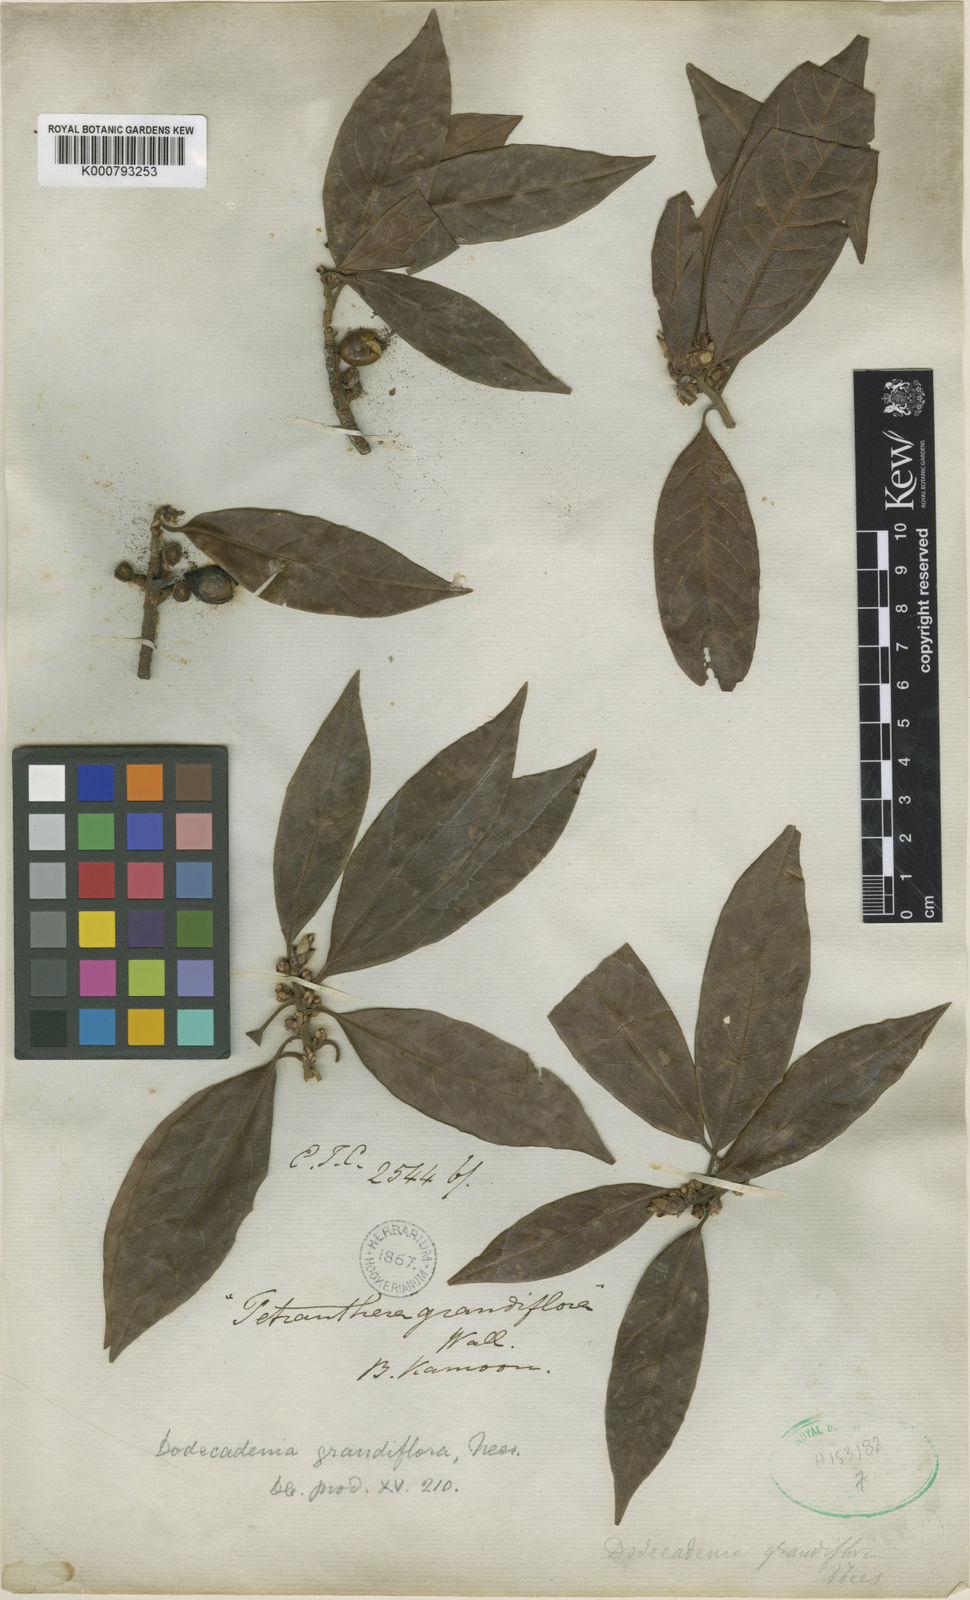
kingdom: Plantae
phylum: Tracheophyta
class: Magnoliopsida
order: Laurales
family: Lauraceae
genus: Dodecadenia
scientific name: Dodecadenia grandiflora
